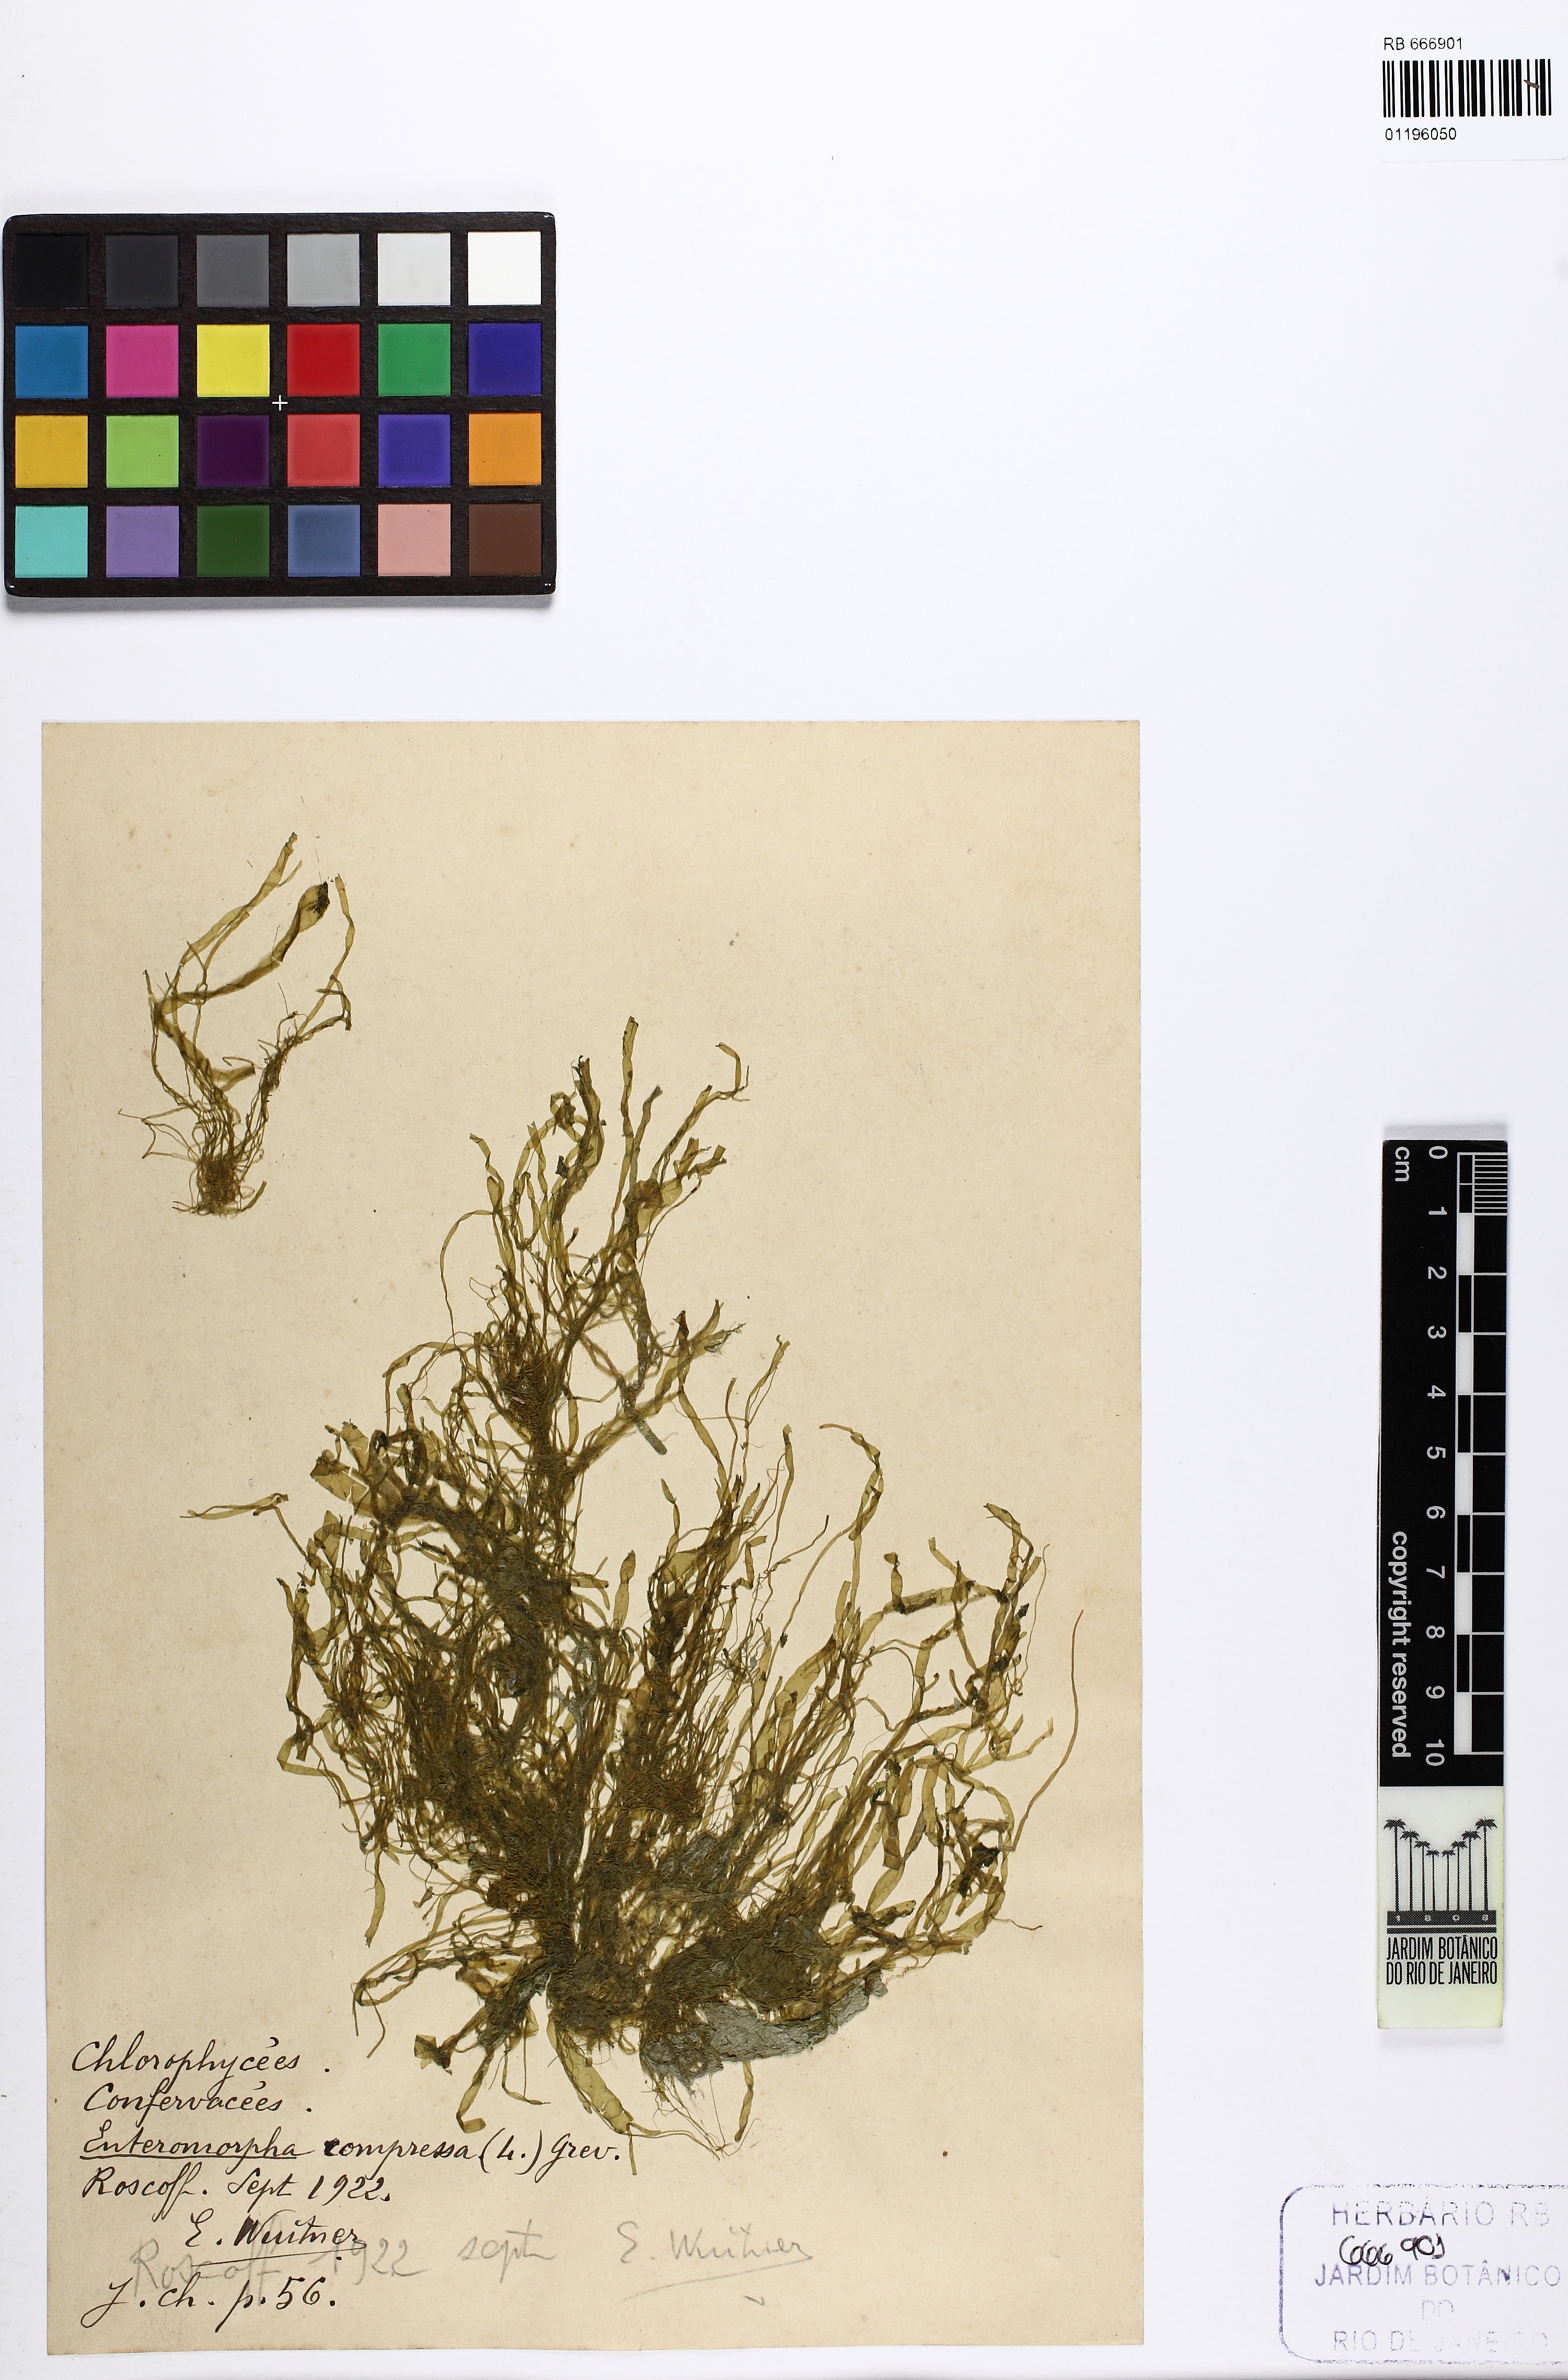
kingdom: Plantae
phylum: Chlorophyta
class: Ulvophyceae
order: Ulvales
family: Ulvaceae
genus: Ulva
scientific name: Ulva compressa
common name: Thread weed
